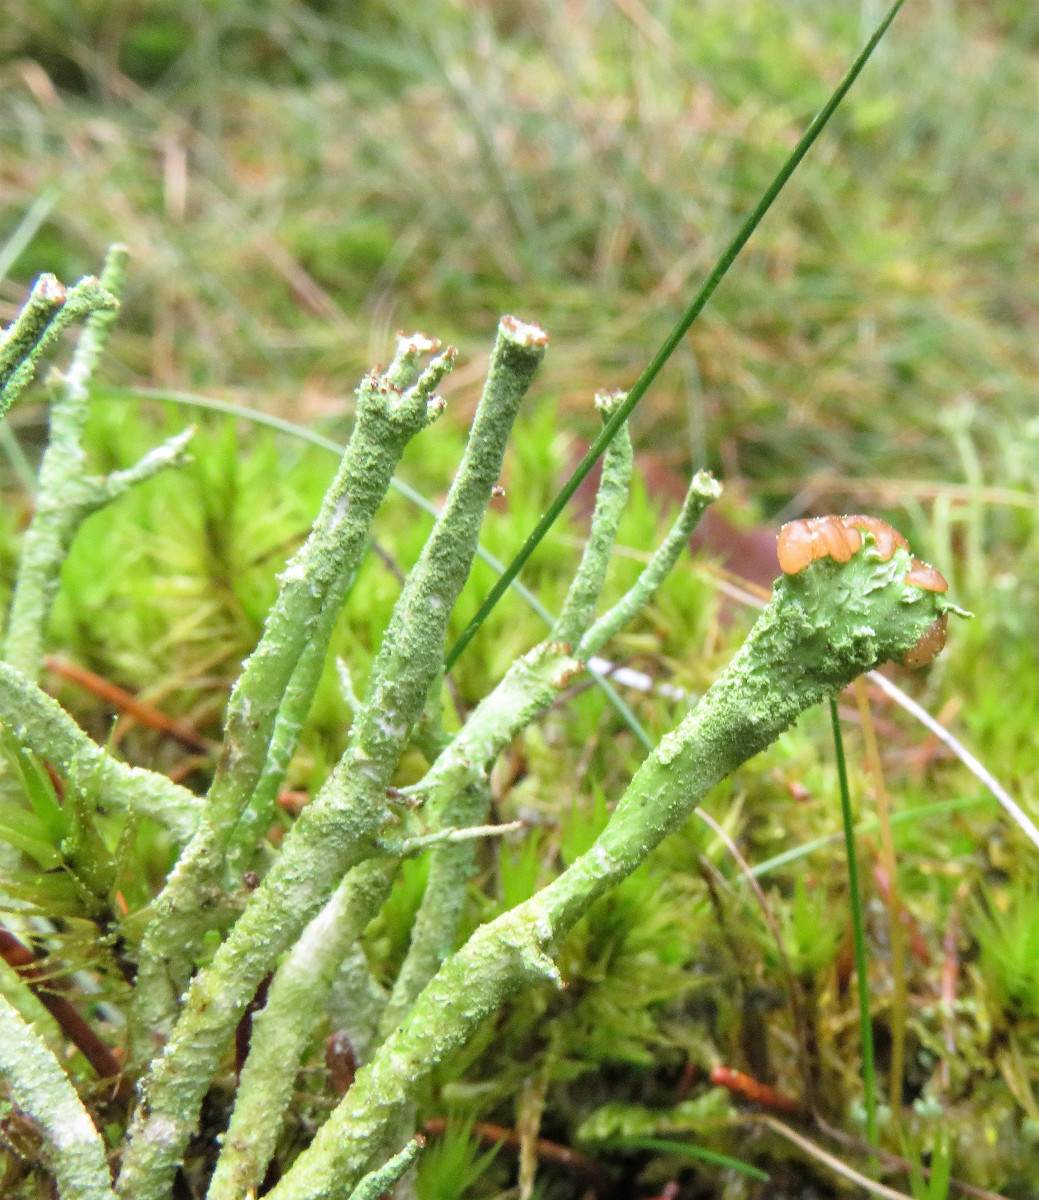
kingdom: Fungi
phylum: Ascomycota
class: Lecanoromycetes
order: Lecanorales
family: Cladoniaceae
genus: Cladonia
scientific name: Cladonia ramulosa
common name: kliddet bægerlav
